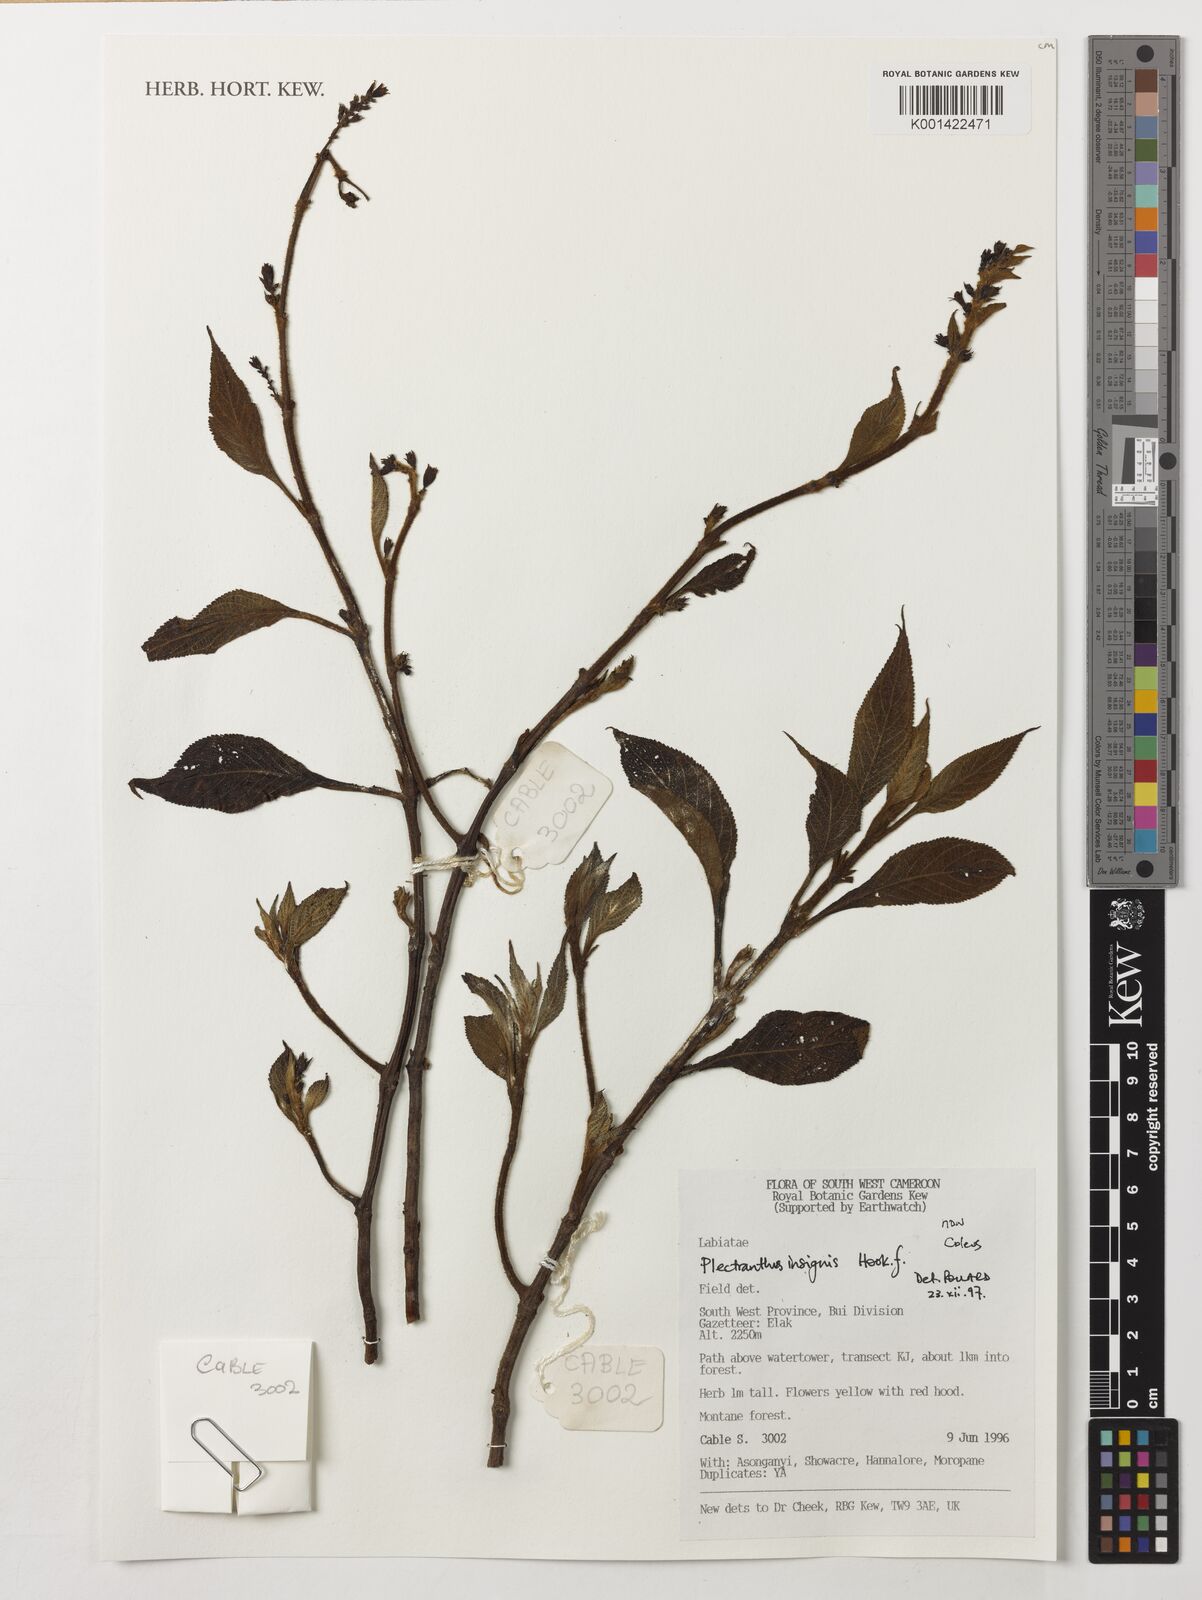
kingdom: Plantae
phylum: Tracheophyta
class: Magnoliopsida
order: Lamiales
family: Lamiaceae
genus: Coleus
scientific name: Coleus insignis
